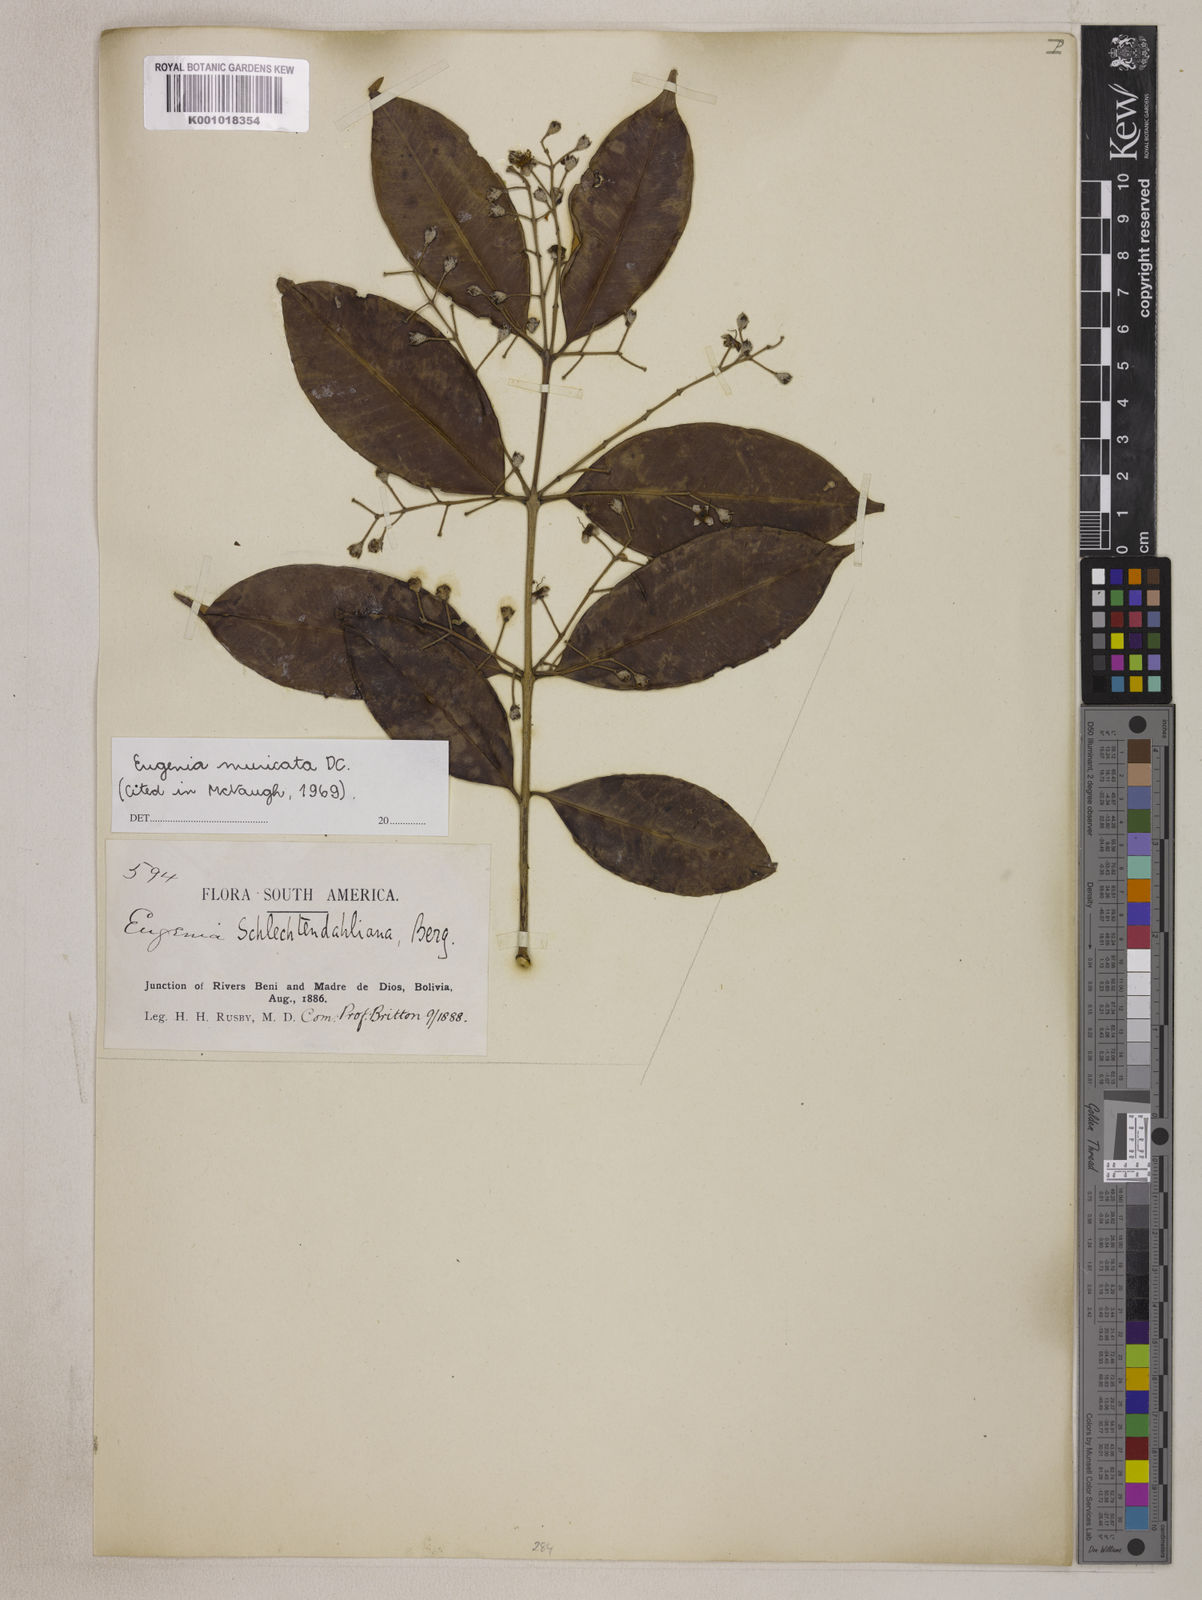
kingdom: Plantae
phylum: Tracheophyta
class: Magnoliopsida
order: Myrtales
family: Myrtaceae
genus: Eugenia
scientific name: Eugenia muricata
